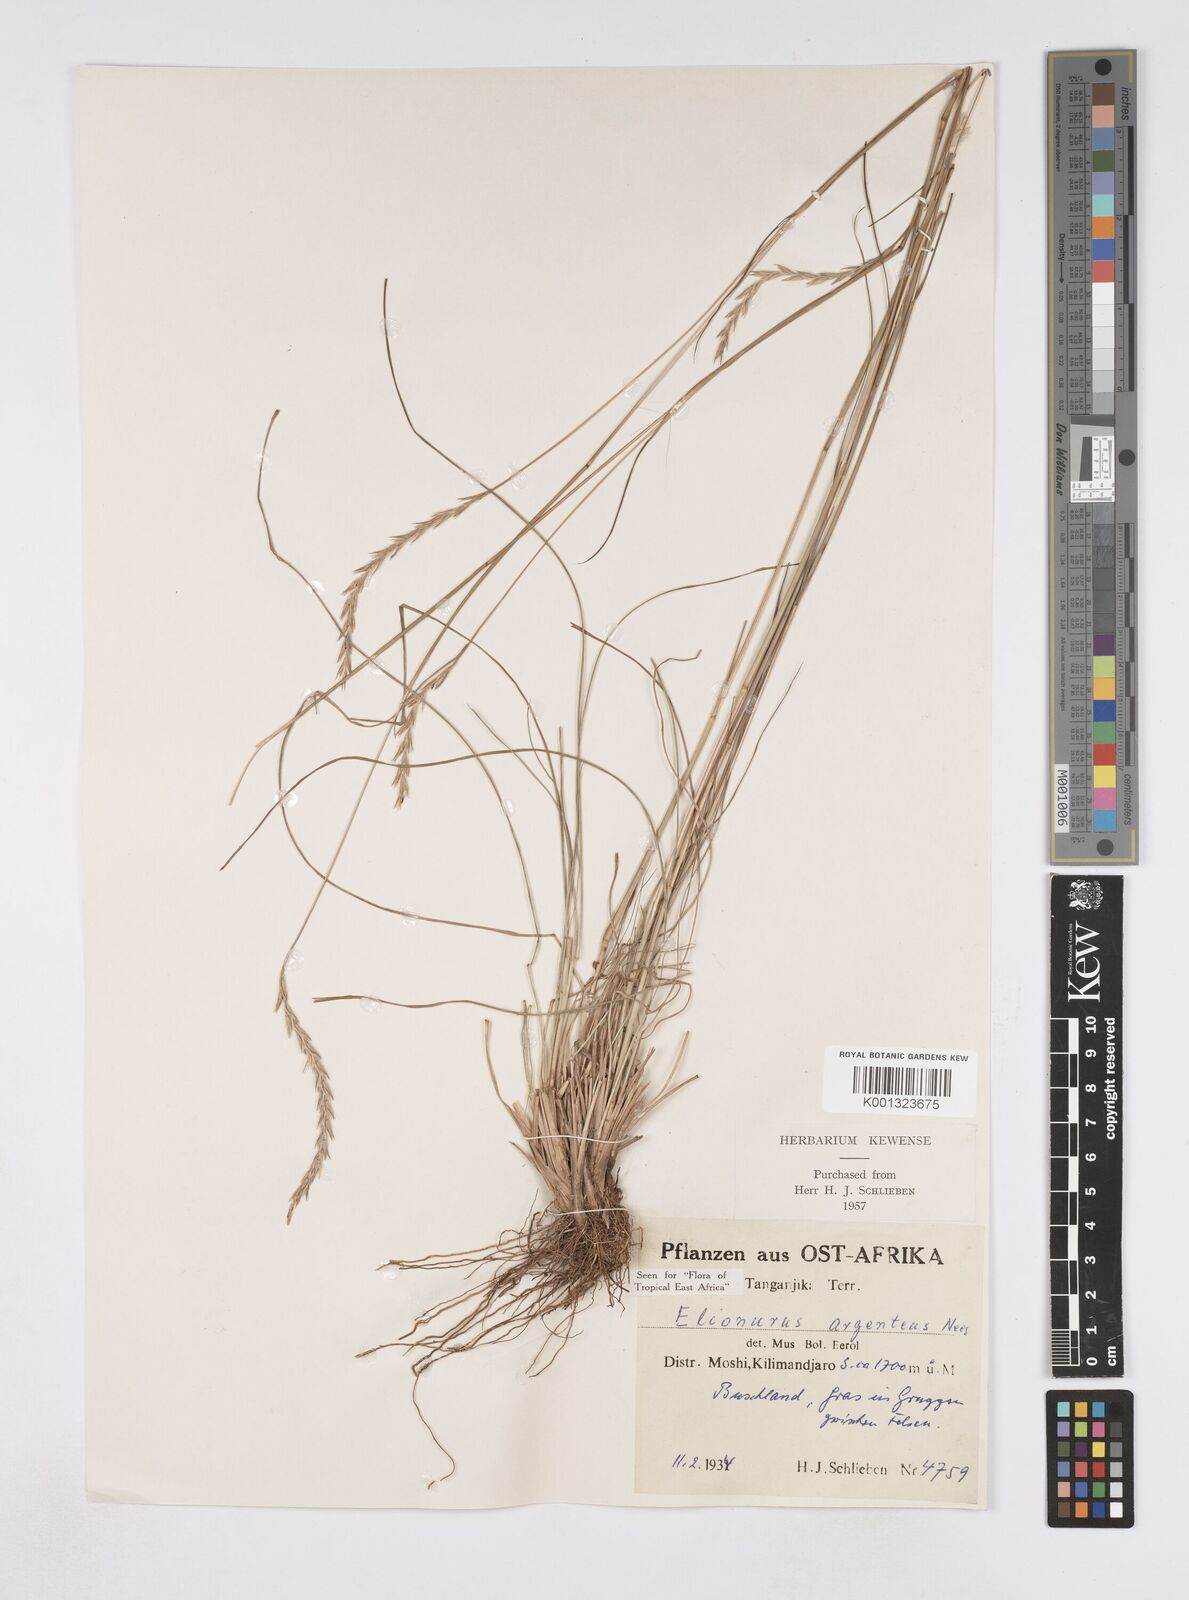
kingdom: Plantae
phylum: Tracheophyta
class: Liliopsida
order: Poales
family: Poaceae
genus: Elionurus
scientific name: Elionurus
